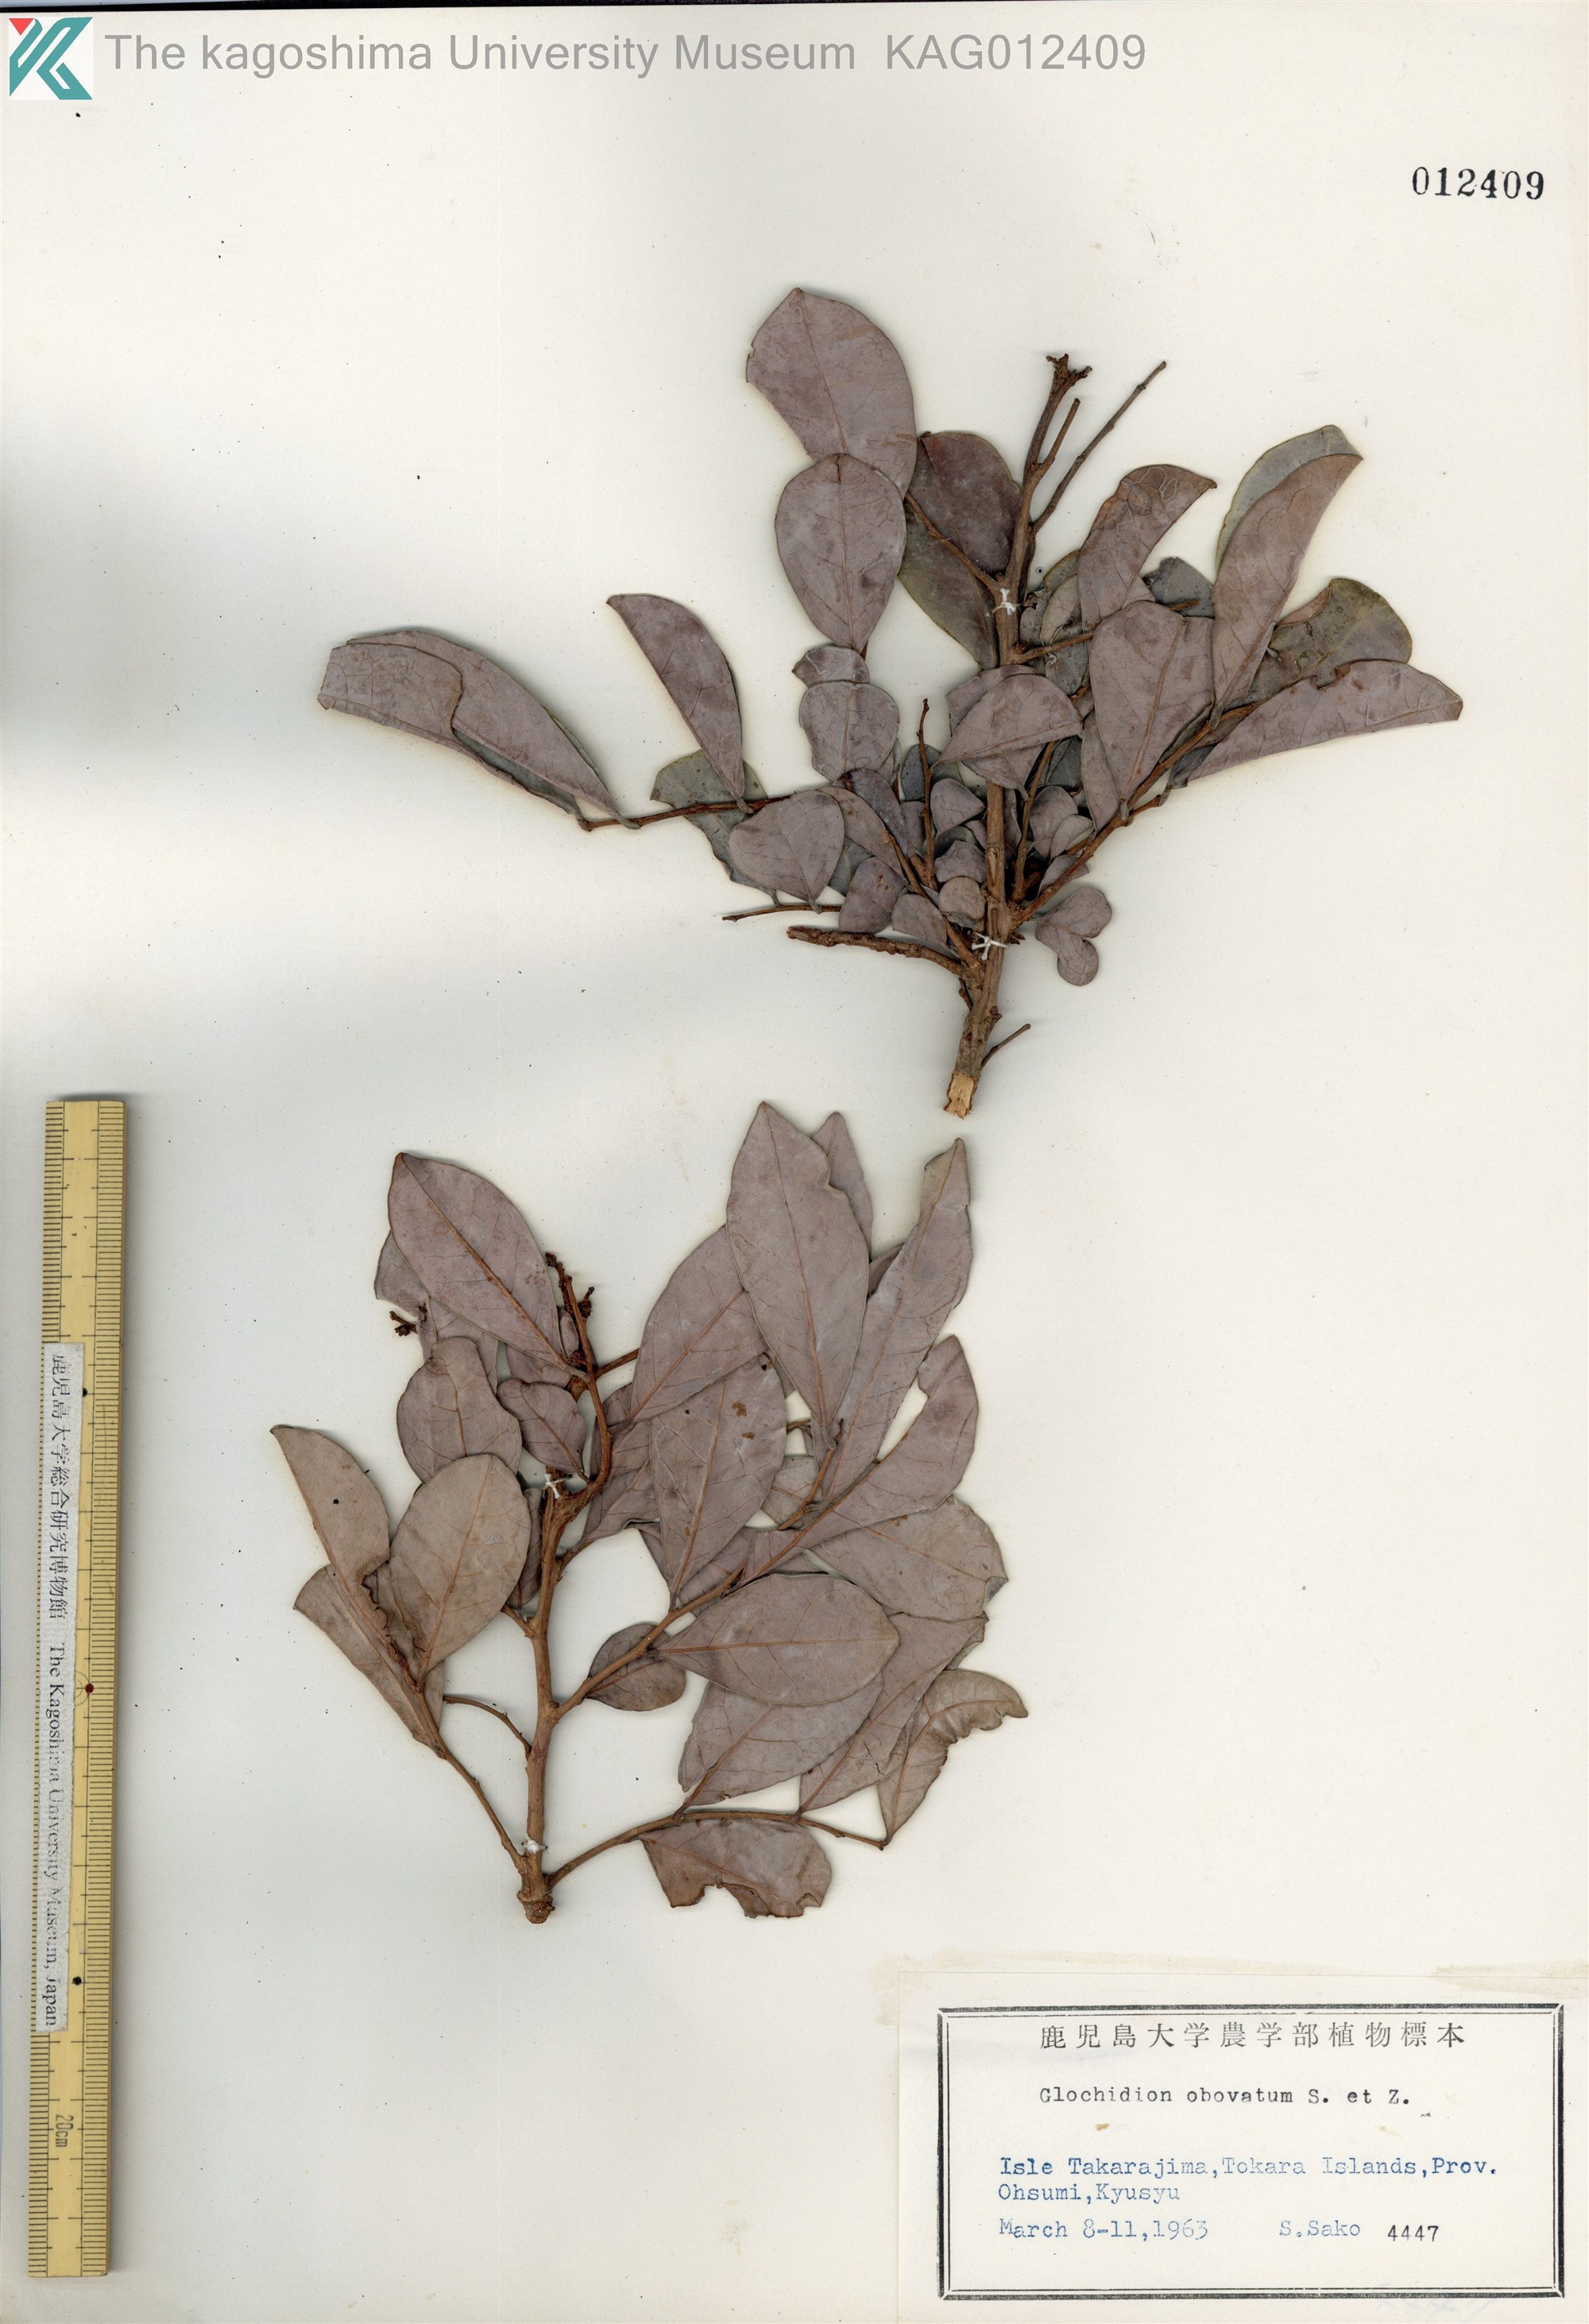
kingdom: Plantae
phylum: Tracheophyta
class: Magnoliopsida
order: Malpighiales
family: Phyllanthaceae
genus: Glochidion
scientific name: Glochidion obovatum
